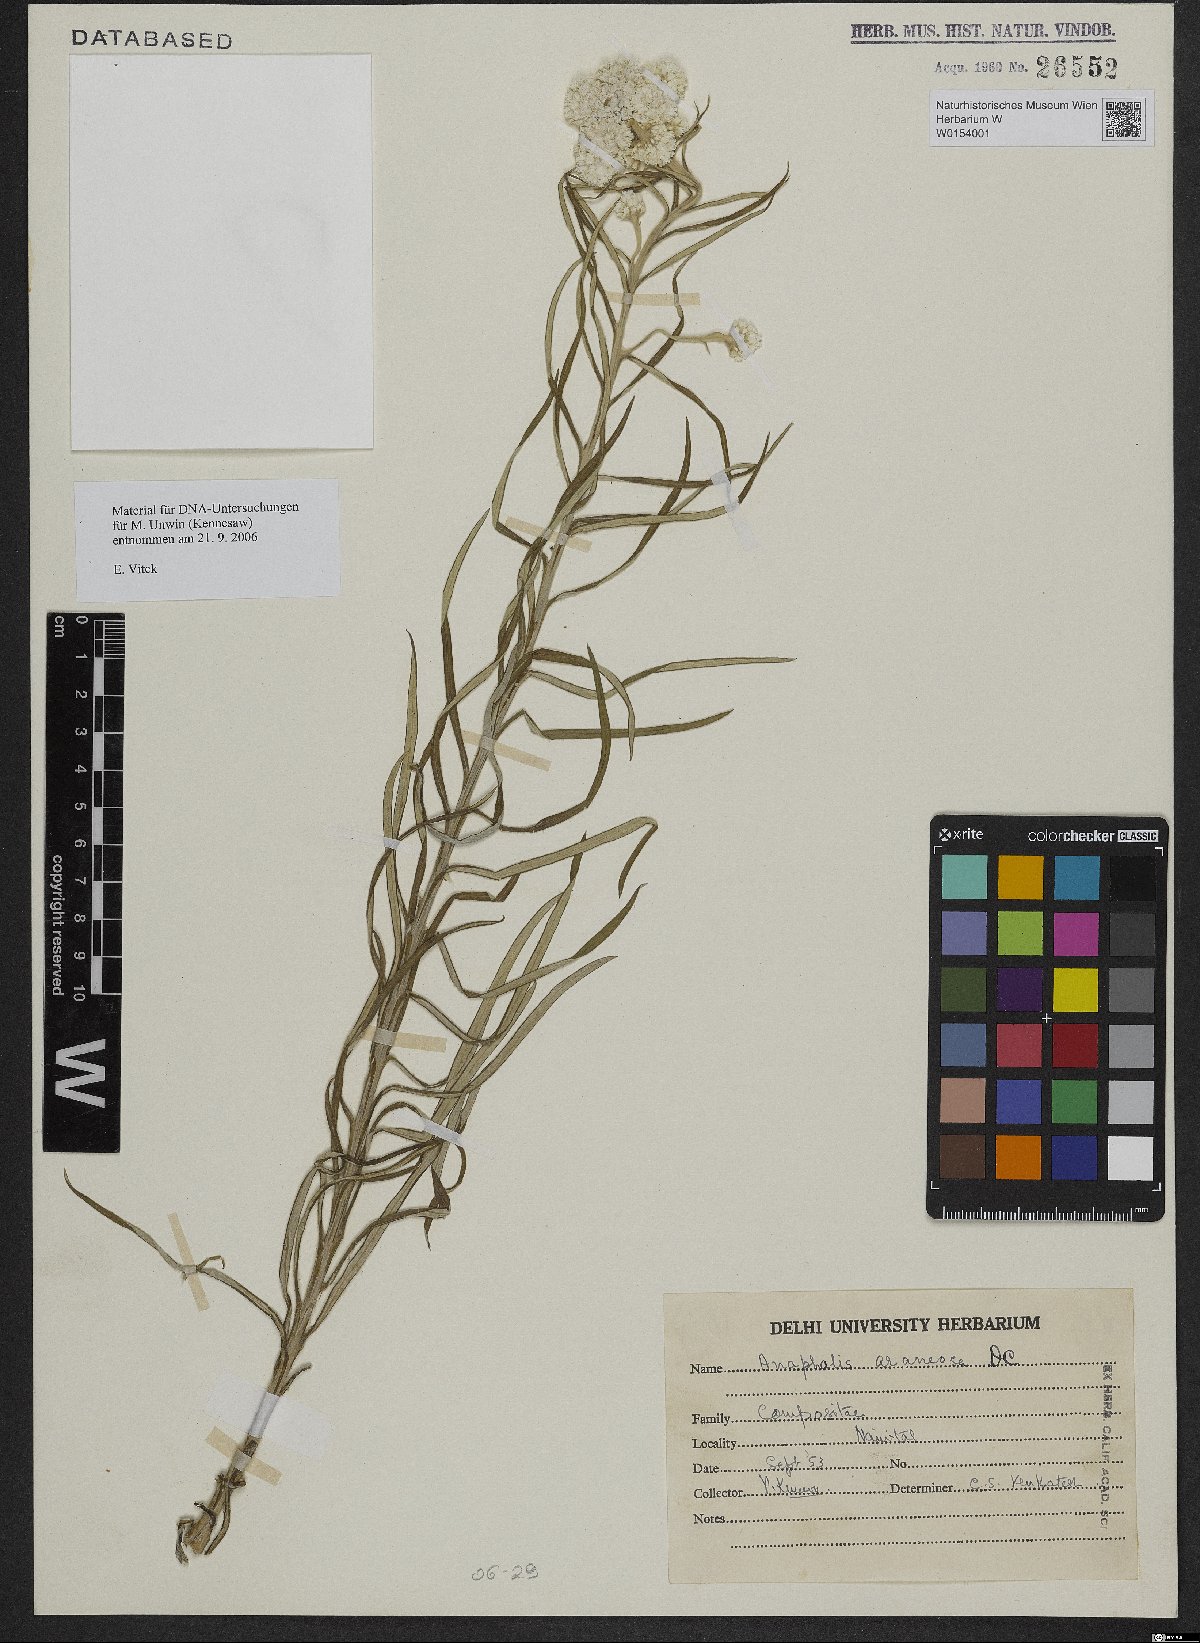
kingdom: Plantae
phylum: Tracheophyta
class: Magnoliopsida
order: Asterales
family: Asteraceae
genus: Anaphalis
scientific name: Anaphalis busua
